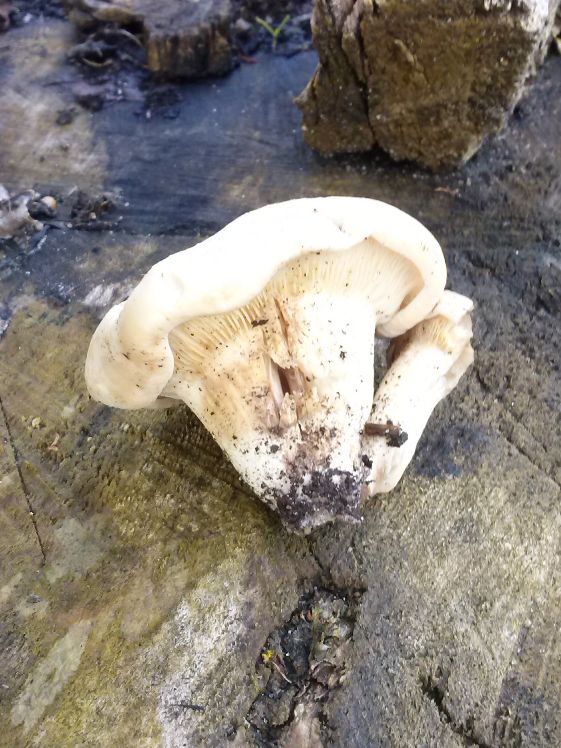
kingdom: Fungi
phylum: Basidiomycota
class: Agaricomycetes
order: Agaricales
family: Lyophyllaceae
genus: Calocybe
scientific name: Calocybe gambosa
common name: vårmusseron
